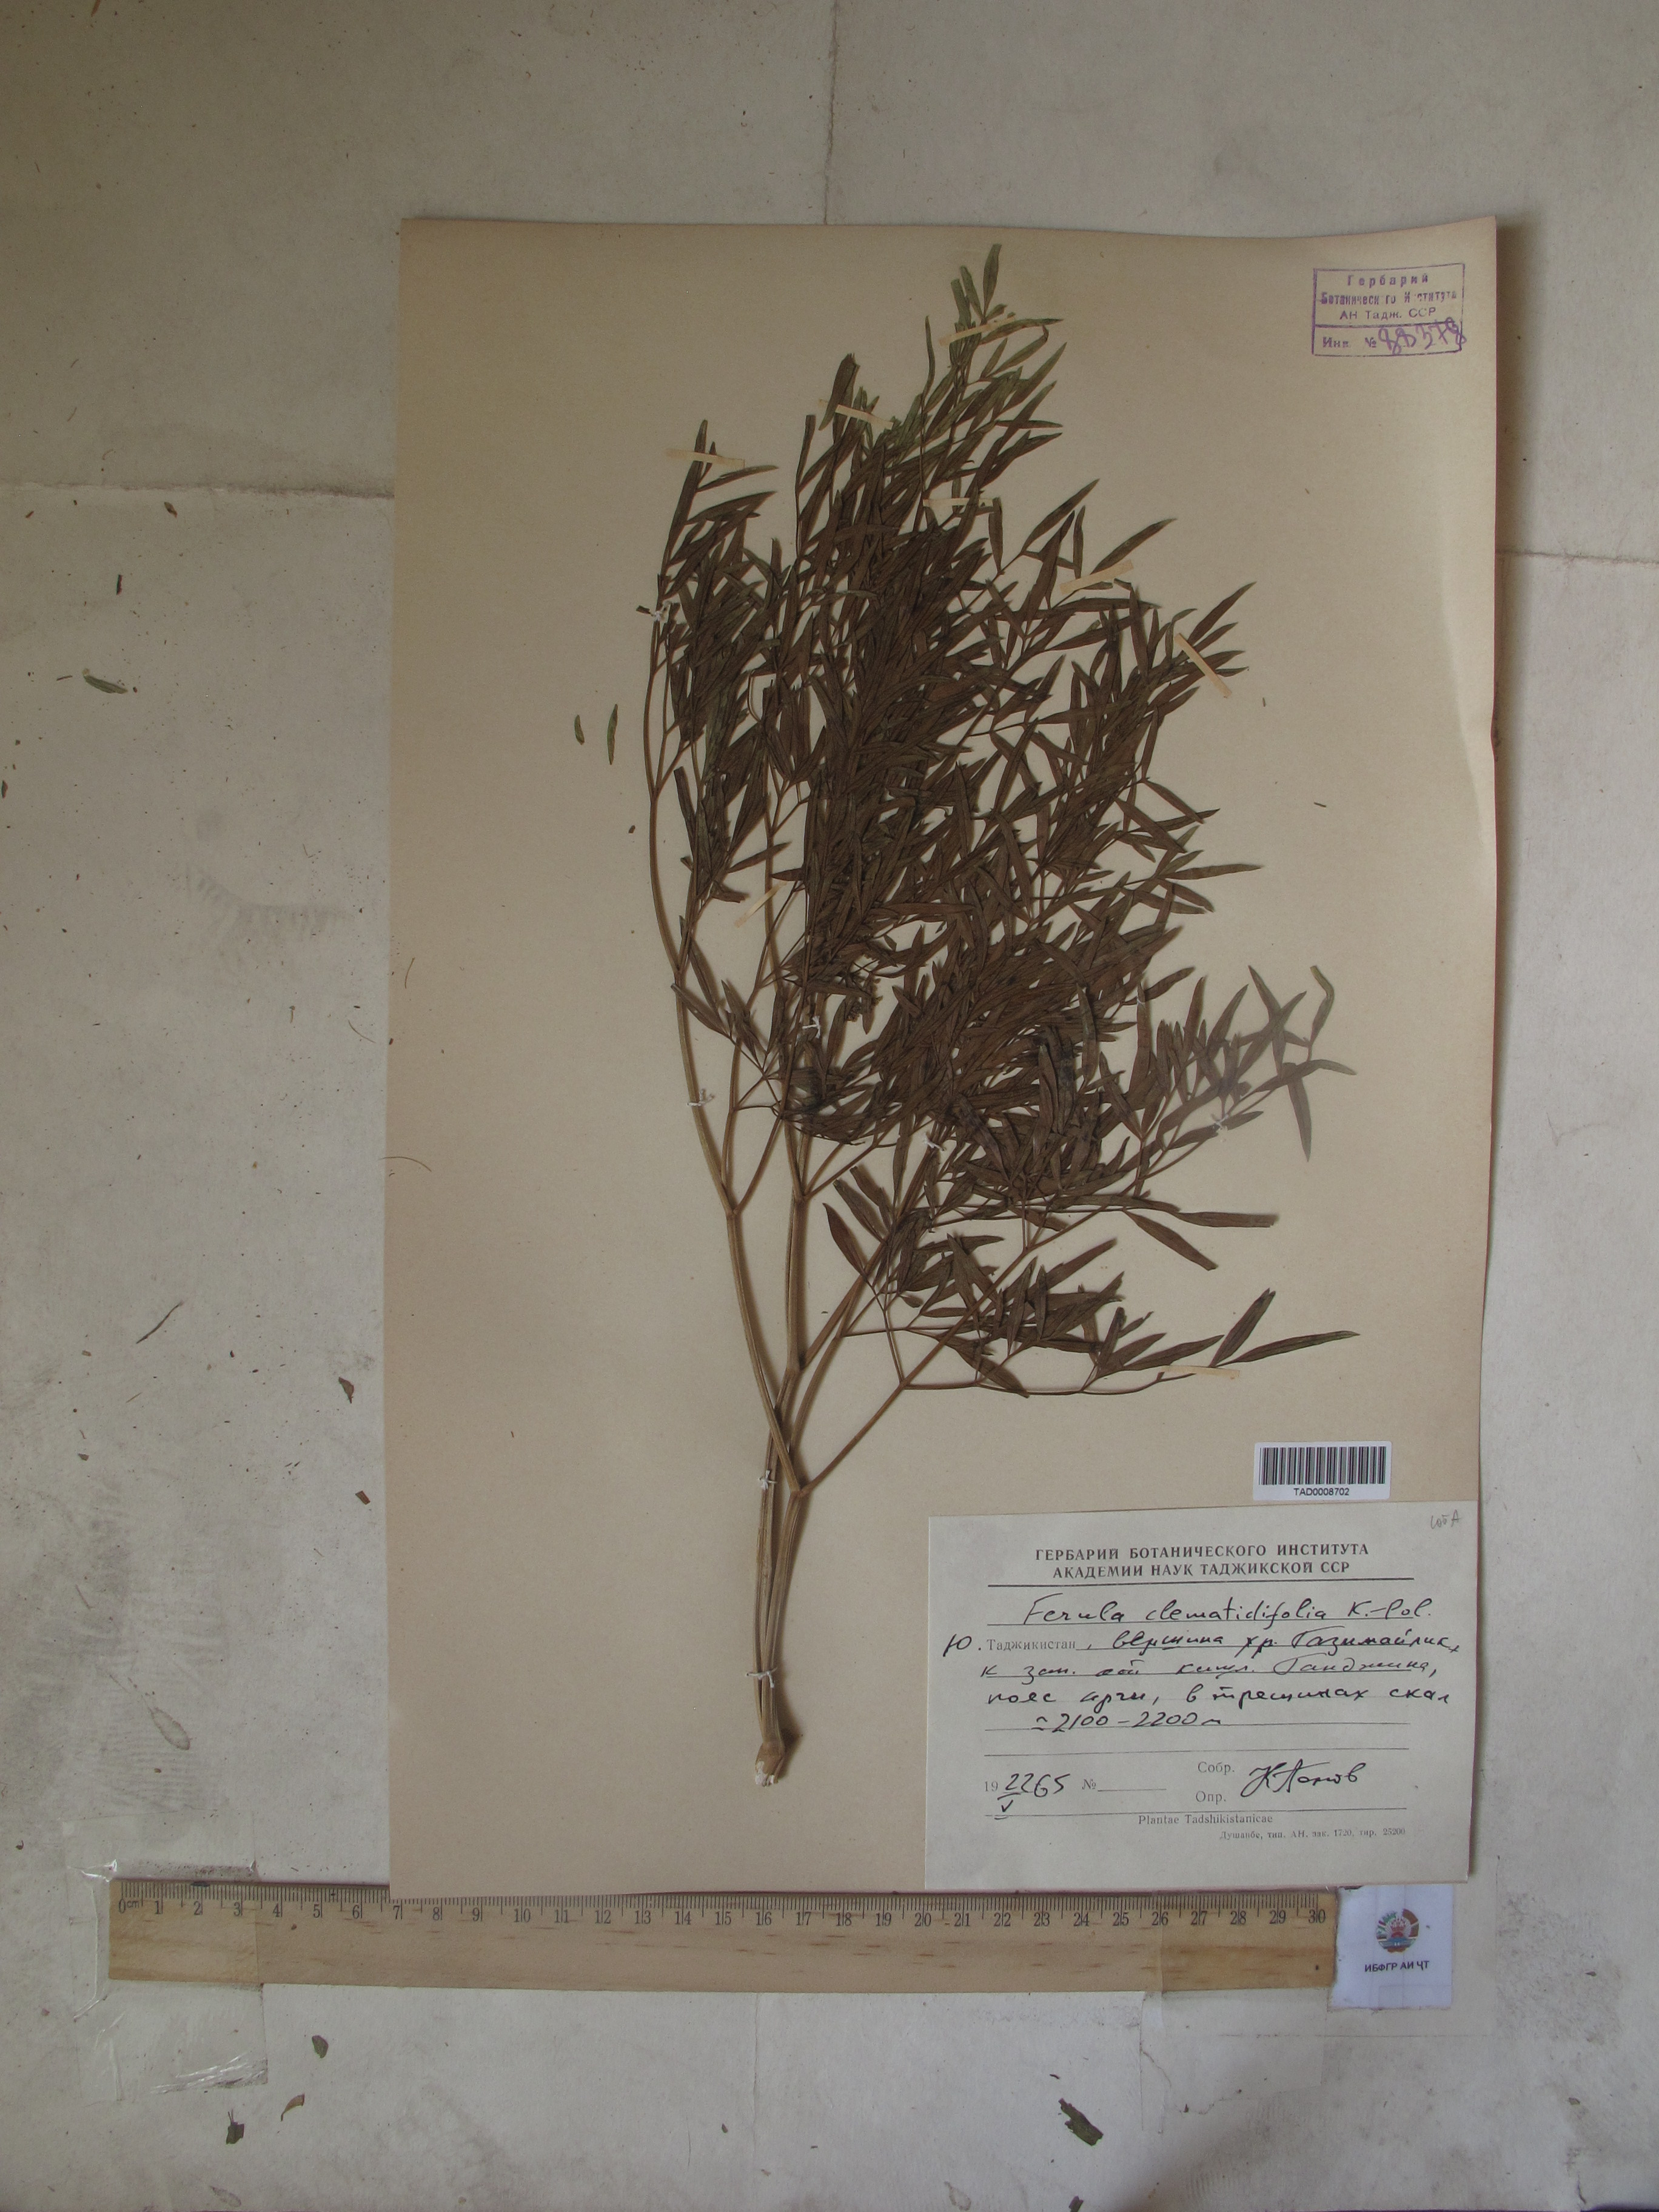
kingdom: Plantae
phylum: Tracheophyta
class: Magnoliopsida
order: Apiales
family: Apiaceae
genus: Ferula
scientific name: Ferula clematidifolia
